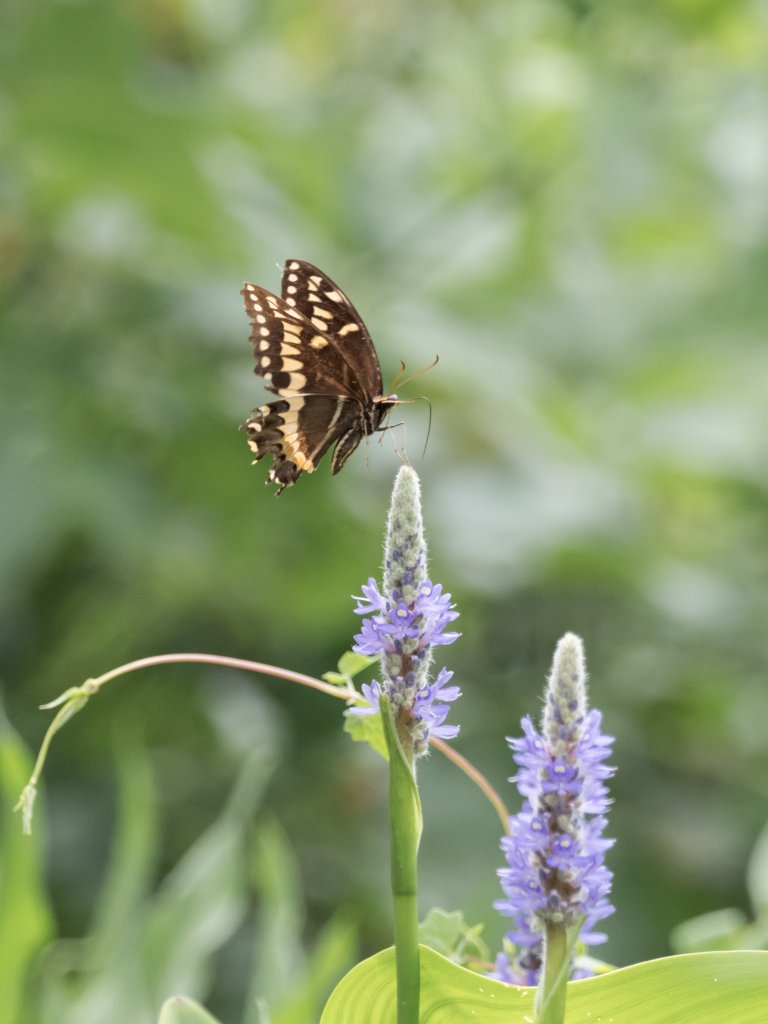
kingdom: Animalia
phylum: Arthropoda
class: Insecta
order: Lepidoptera
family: Papilionidae
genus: Pterourus
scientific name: Pterourus palamedes
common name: Palamedes Swallowtail
